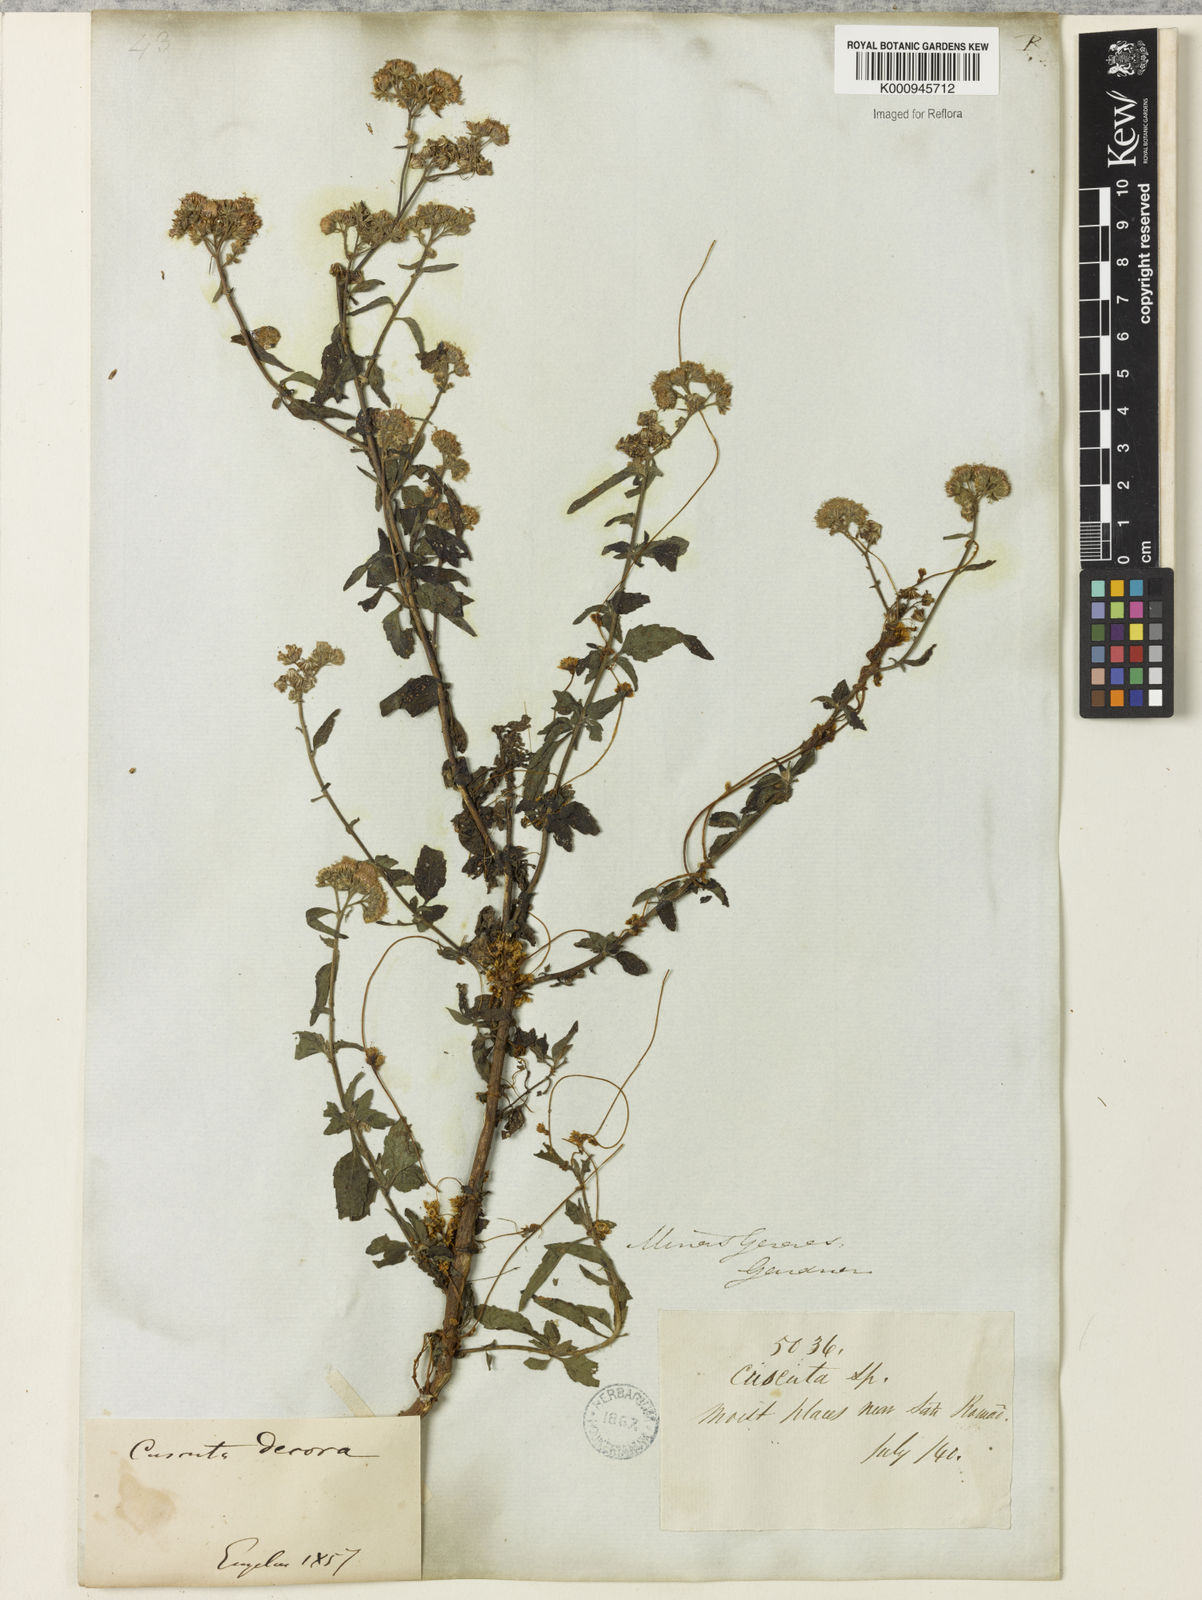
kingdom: Plantae
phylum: Tracheophyta
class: Magnoliopsida
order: Solanales
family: Convolvulaceae
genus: Cuscuta
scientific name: Cuscuta indecora
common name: Large-seed dodder
